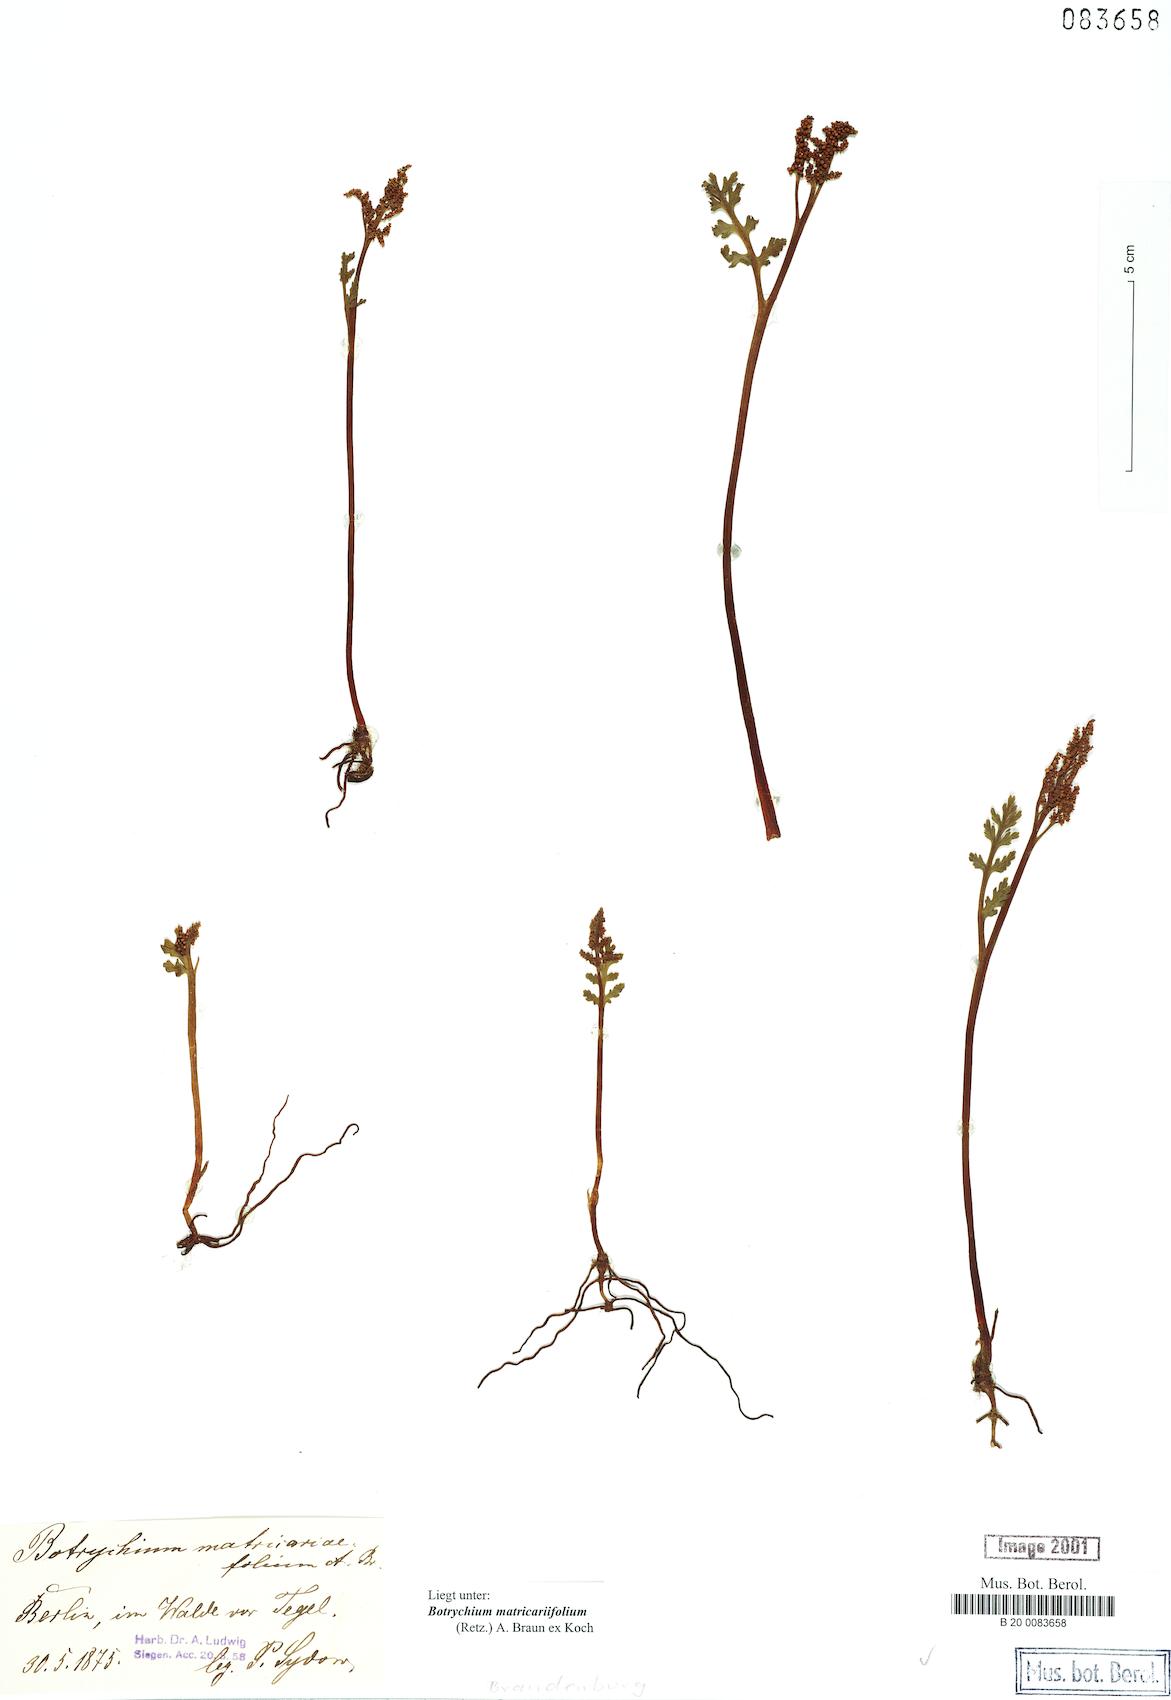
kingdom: Plantae
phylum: Tracheophyta
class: Polypodiopsida
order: Ophioglossales
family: Ophioglossaceae
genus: Botrychium
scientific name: Botrychium matricariifolium
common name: Branched moonwort
